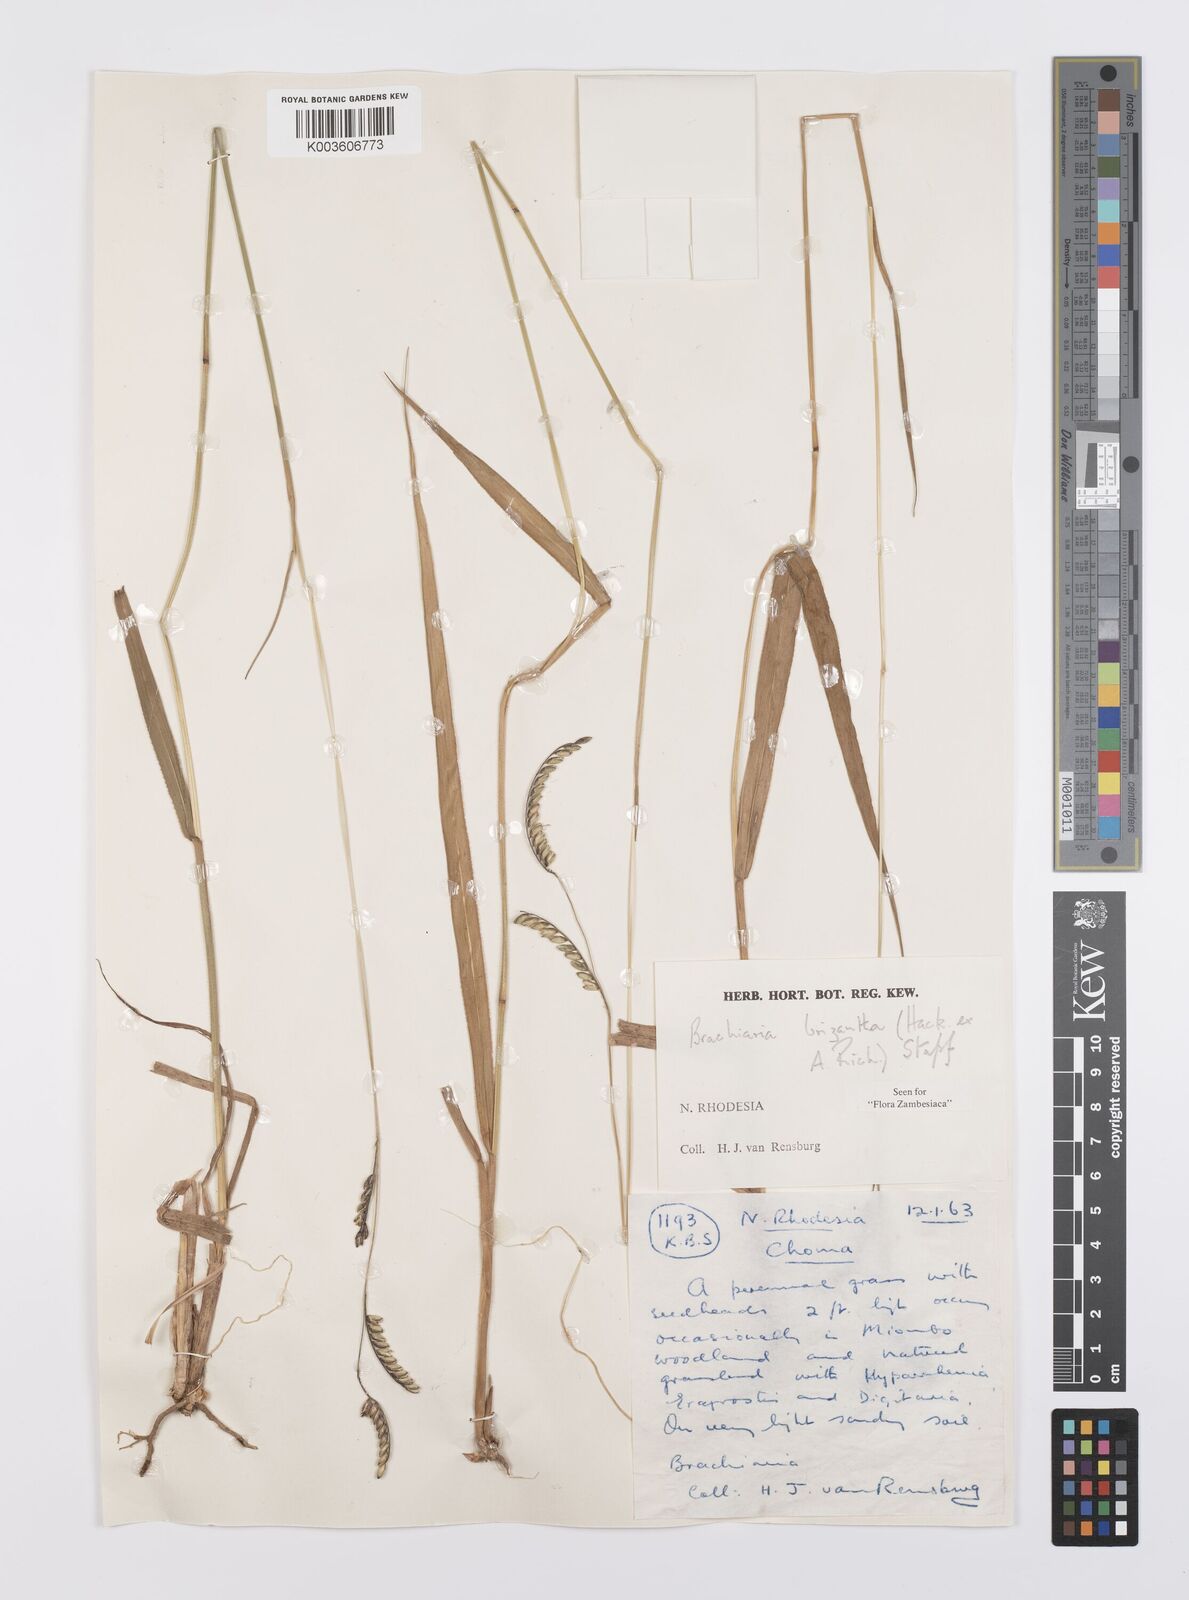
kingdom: Plantae
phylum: Tracheophyta
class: Liliopsida
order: Poales
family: Poaceae
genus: Urochloa
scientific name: Urochloa brizantha
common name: Palisade signalgrass
